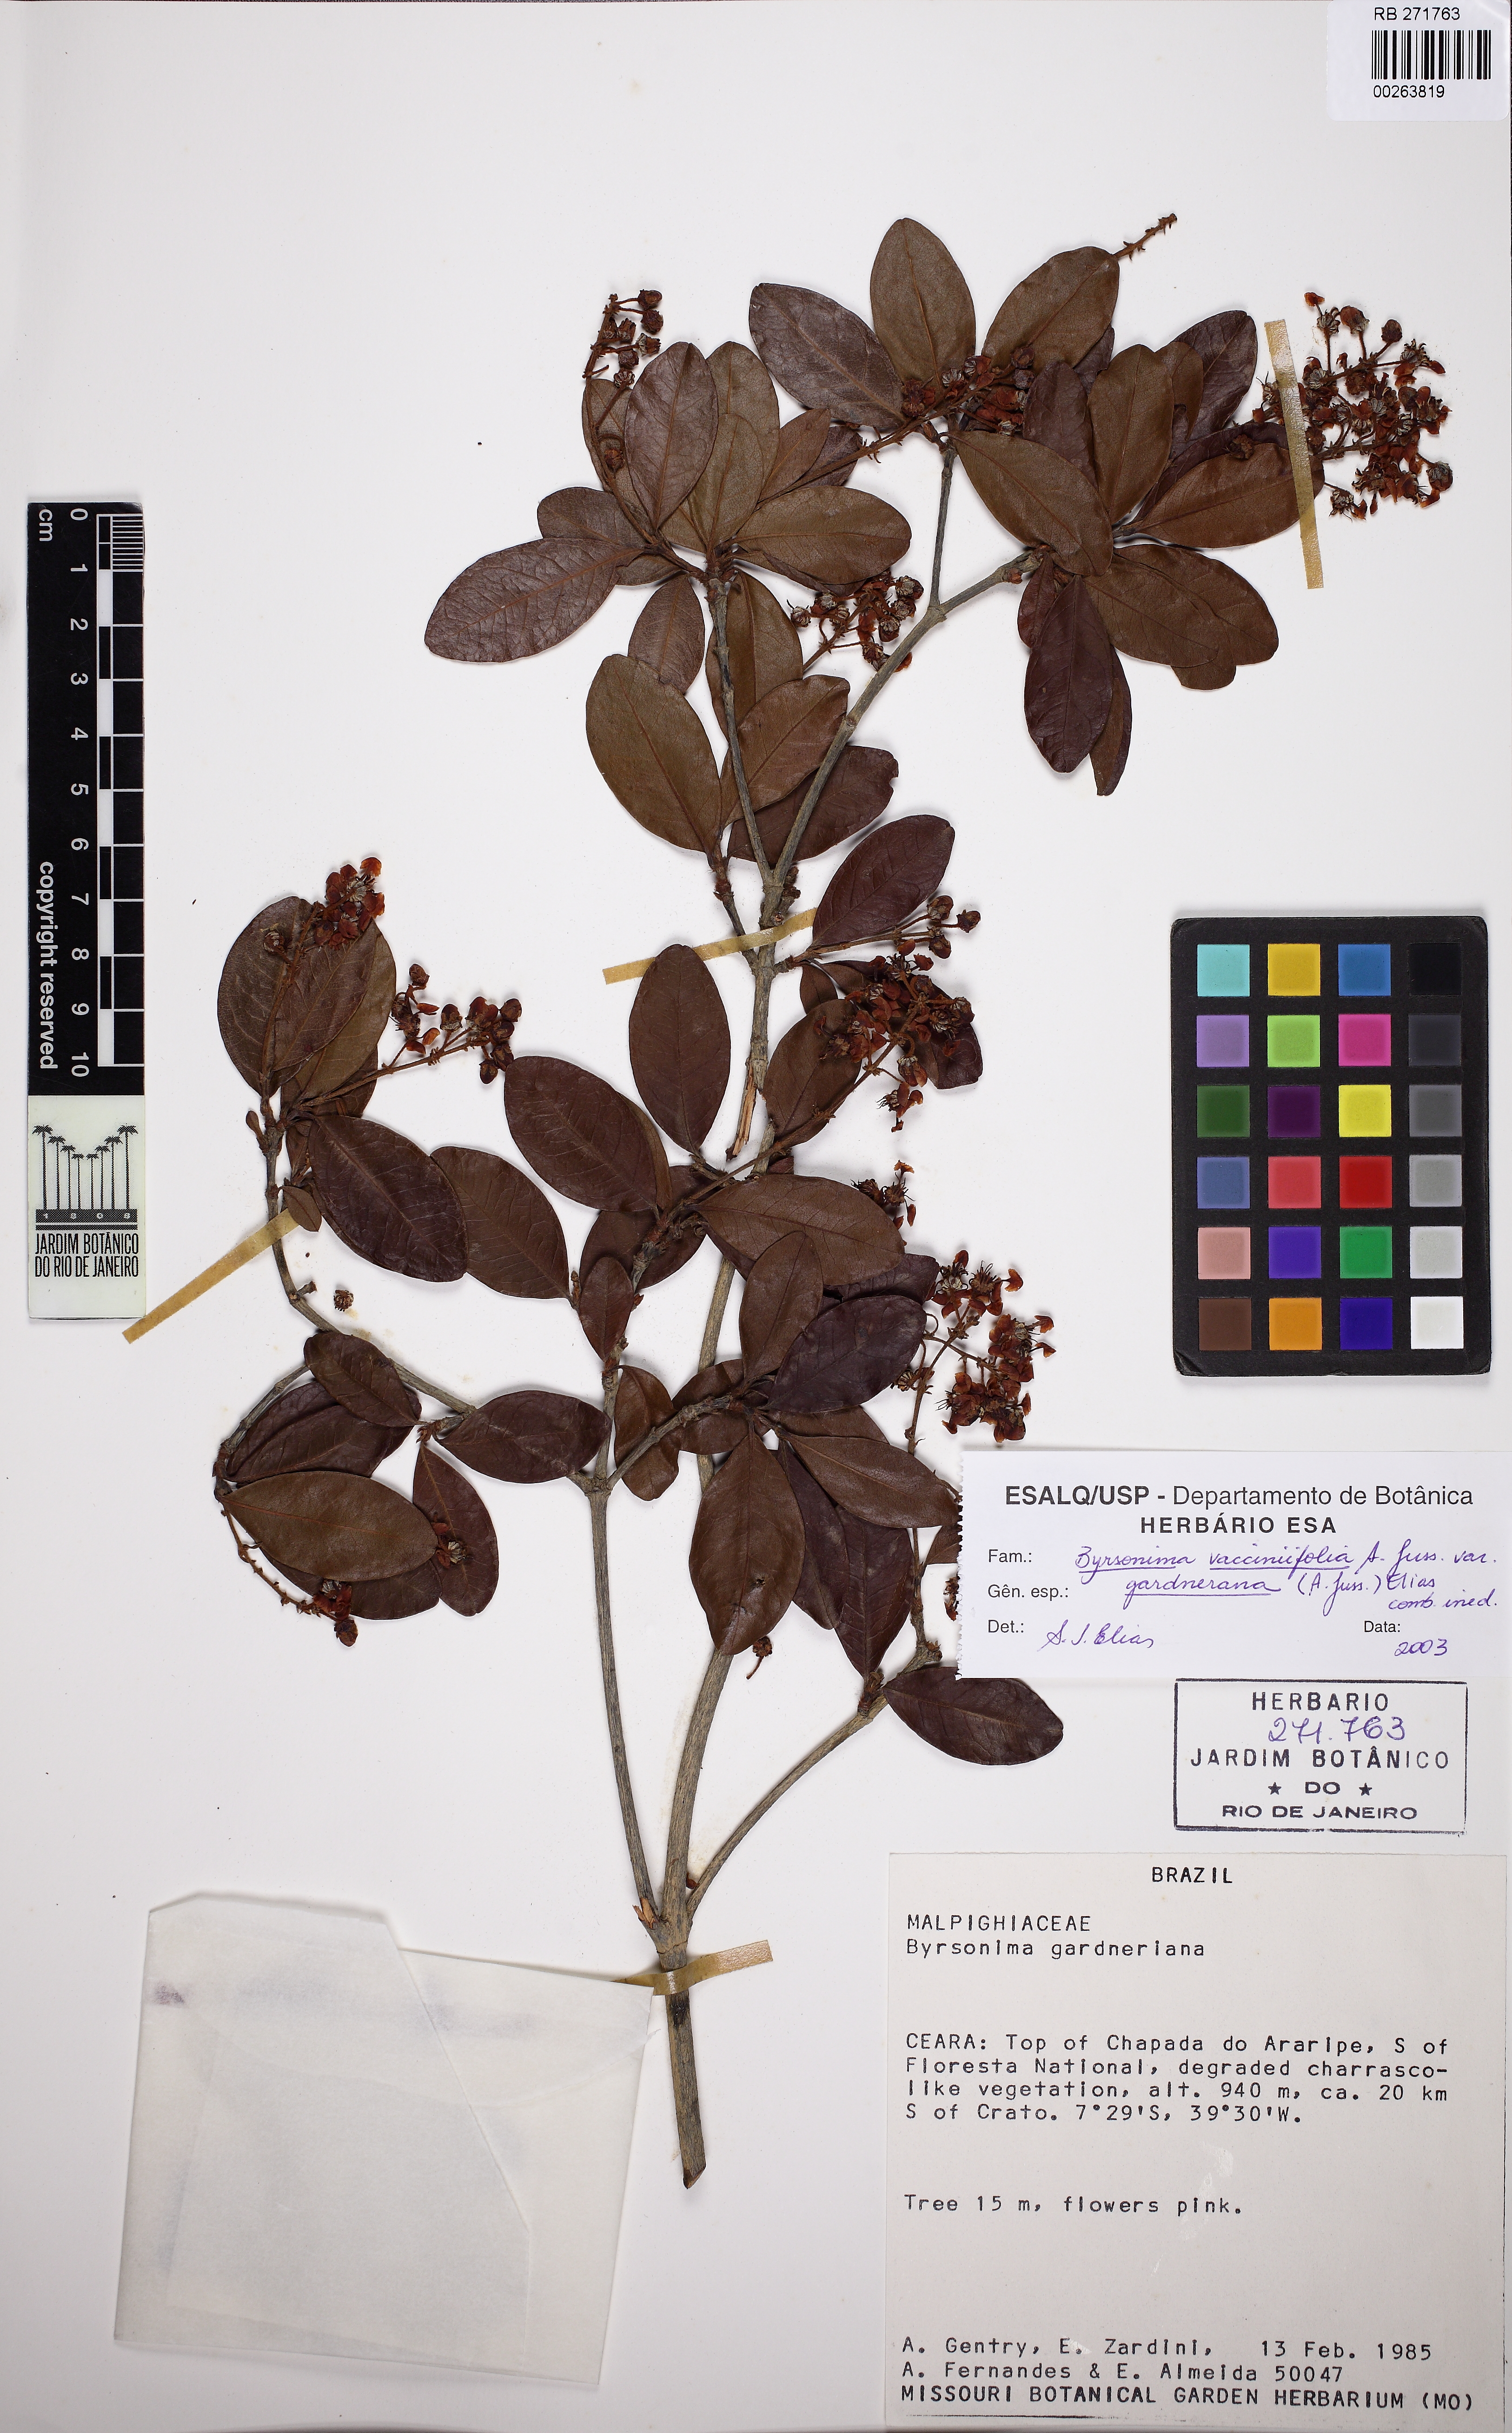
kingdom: Plantae
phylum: Tracheophyta
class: Magnoliopsida
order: Malpighiales
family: Malpighiaceae
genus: Byrsonima
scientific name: Byrsonima vacciniifolia
